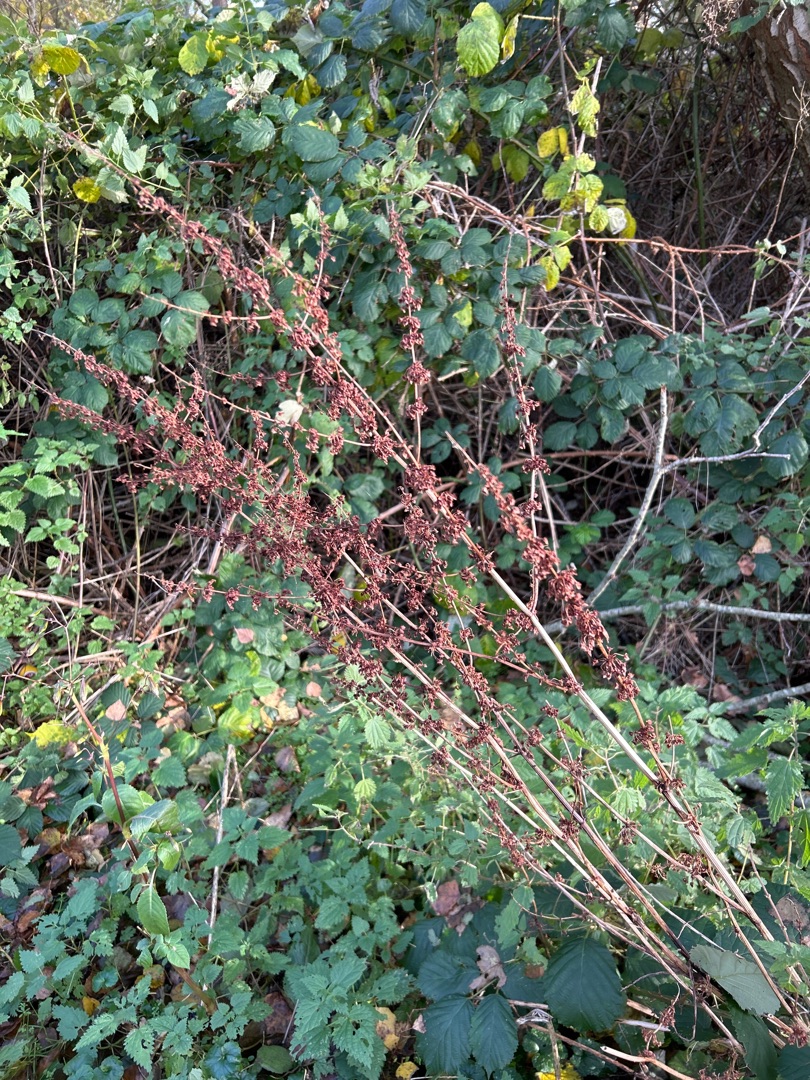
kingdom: Plantae
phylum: Tracheophyta
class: Magnoliopsida
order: Caryophyllales
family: Polygonaceae
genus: Rumex
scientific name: Rumex obtusifolius
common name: Butbladet skræppe
